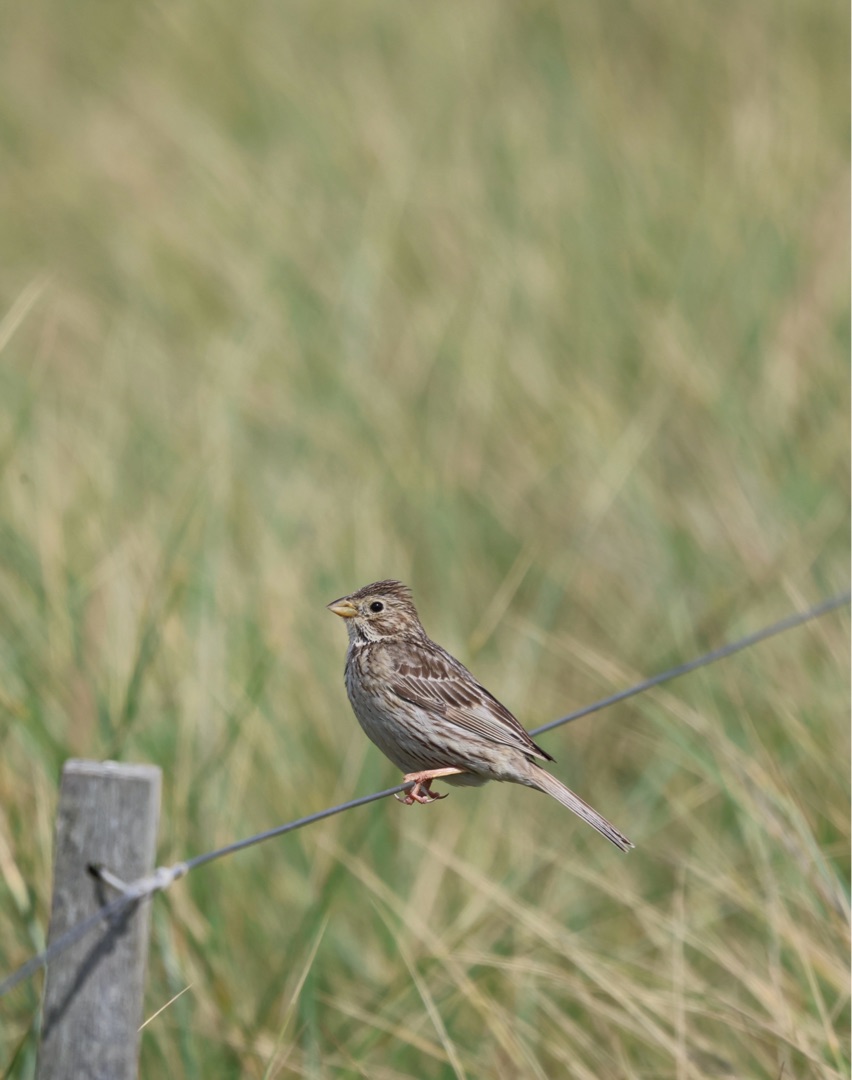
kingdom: Animalia
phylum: Chordata
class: Aves
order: Passeriformes
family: Emberizidae
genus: Emberiza
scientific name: Emberiza calandra
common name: Bomlærke
